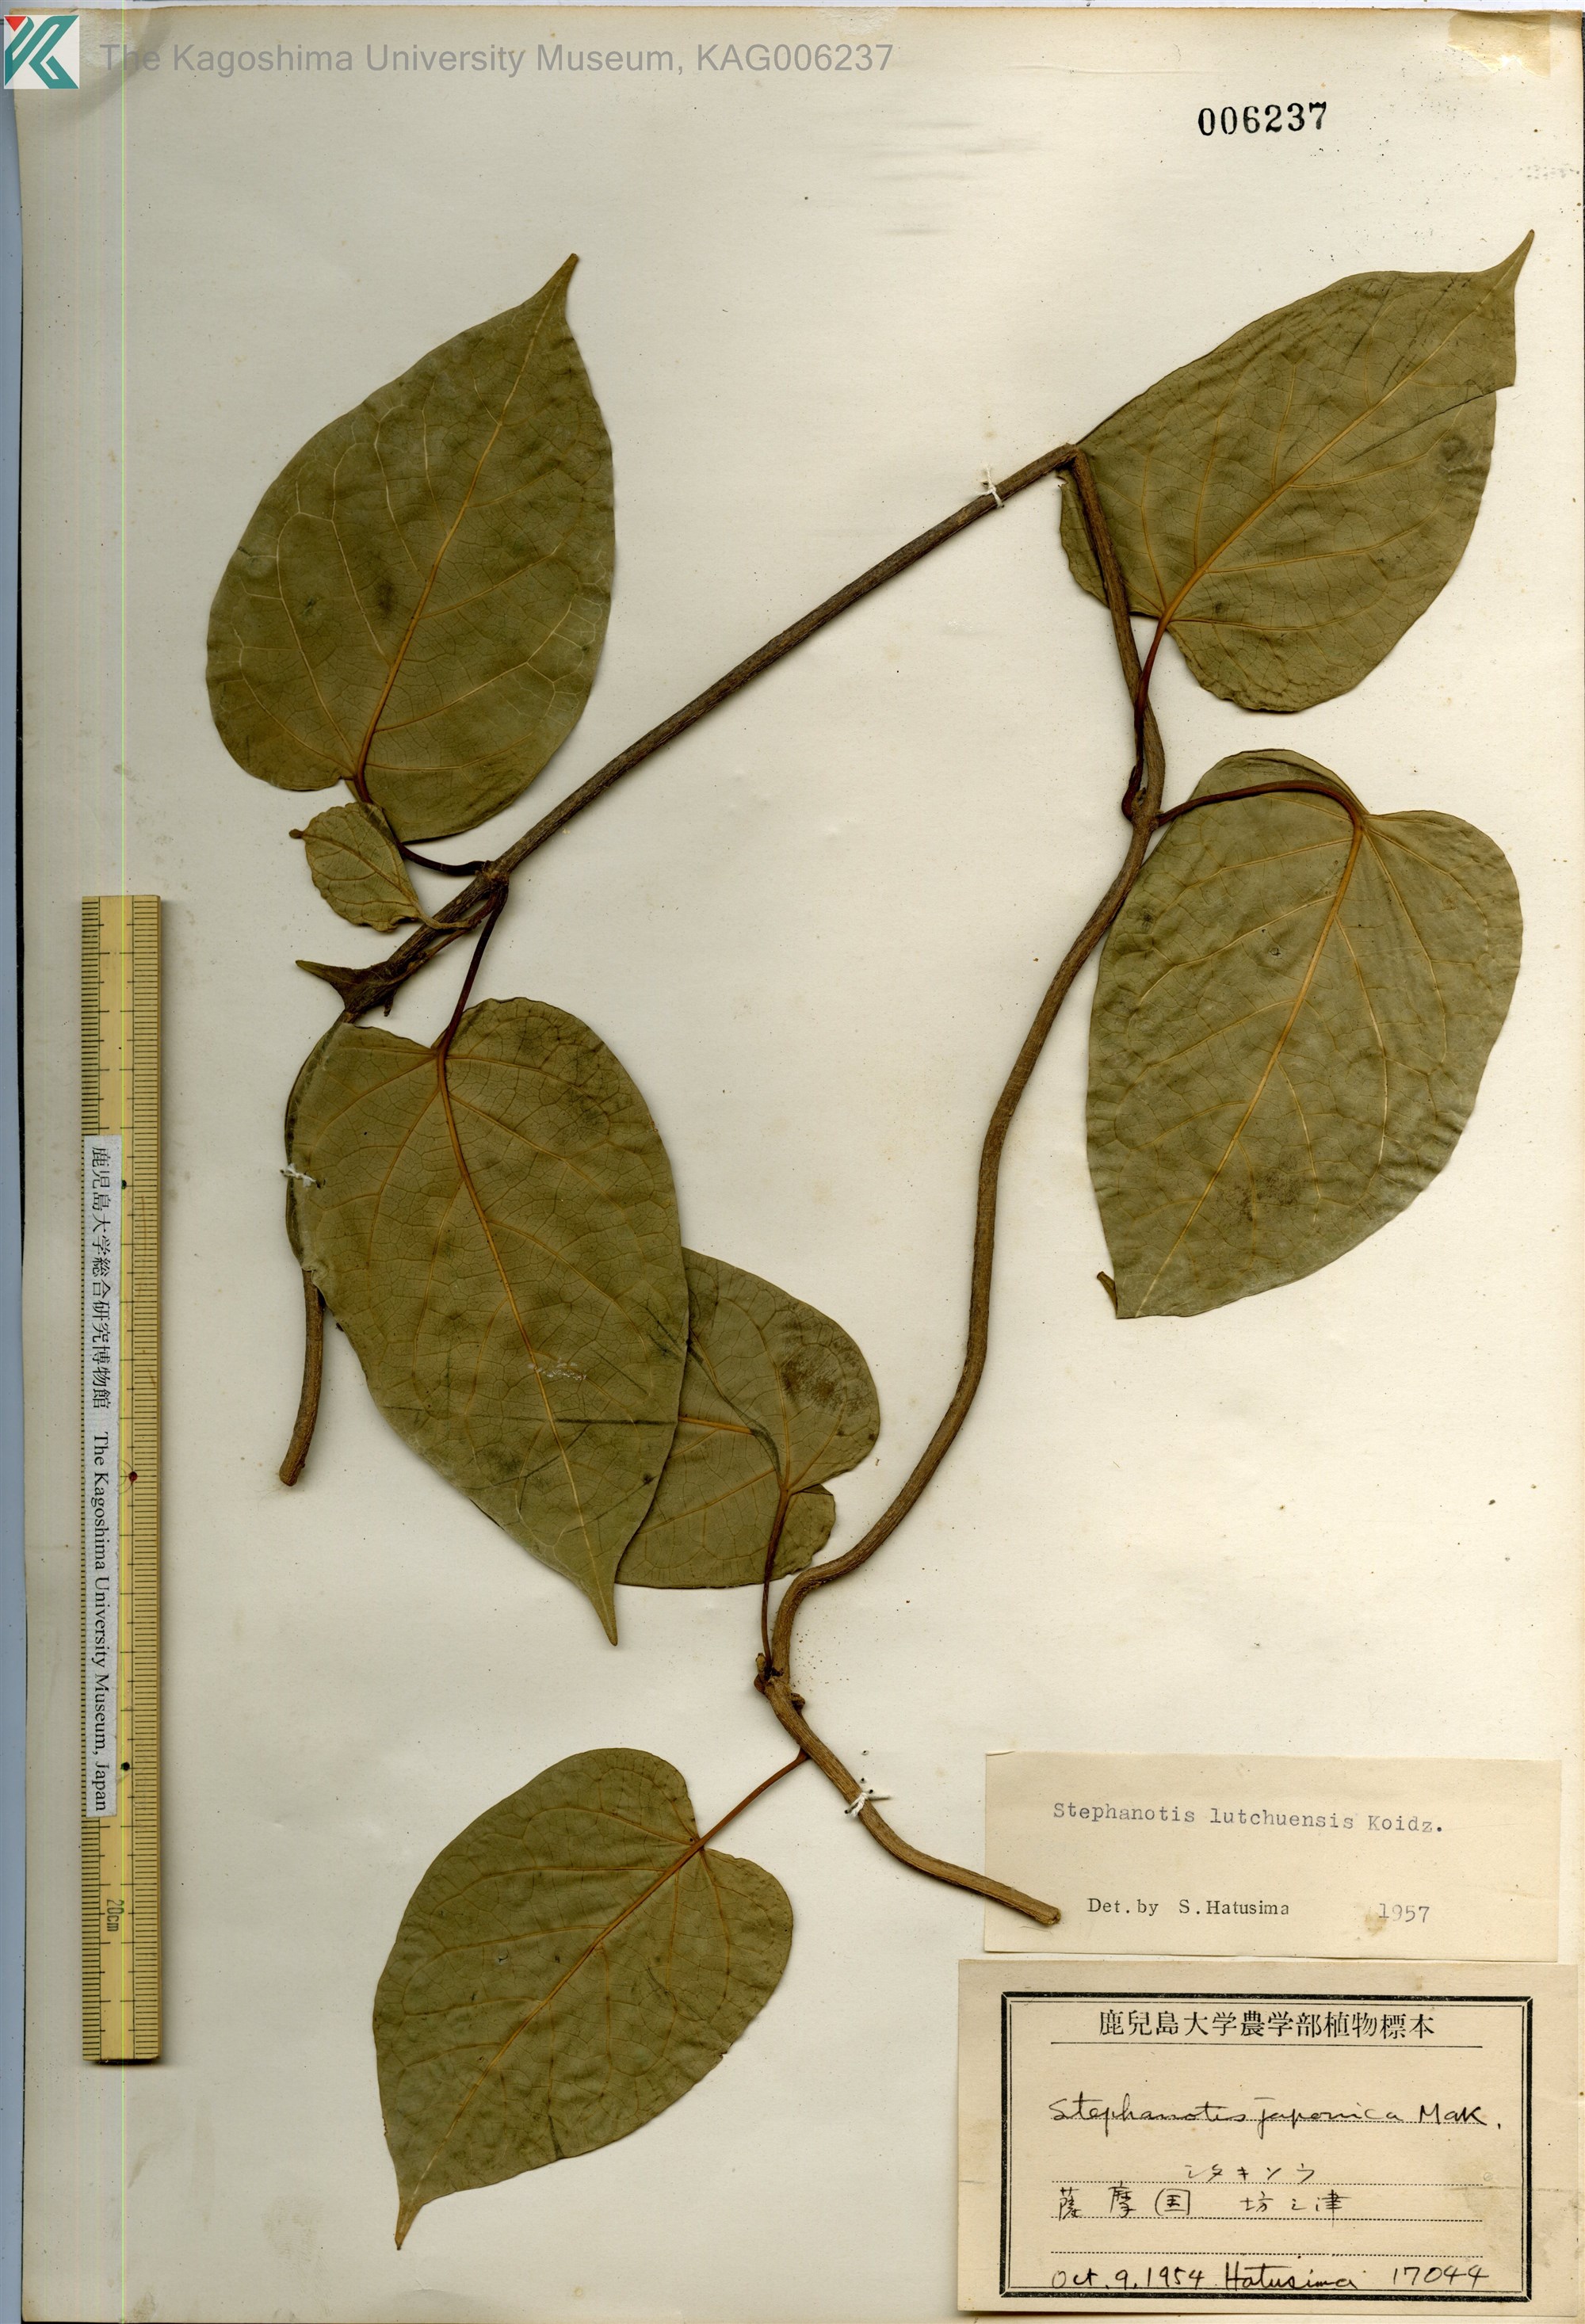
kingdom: Plantae
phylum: Tracheophyta
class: Magnoliopsida
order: Gentianales
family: Apocynaceae
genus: Jasminanthes
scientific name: Jasminanthes mucronata
